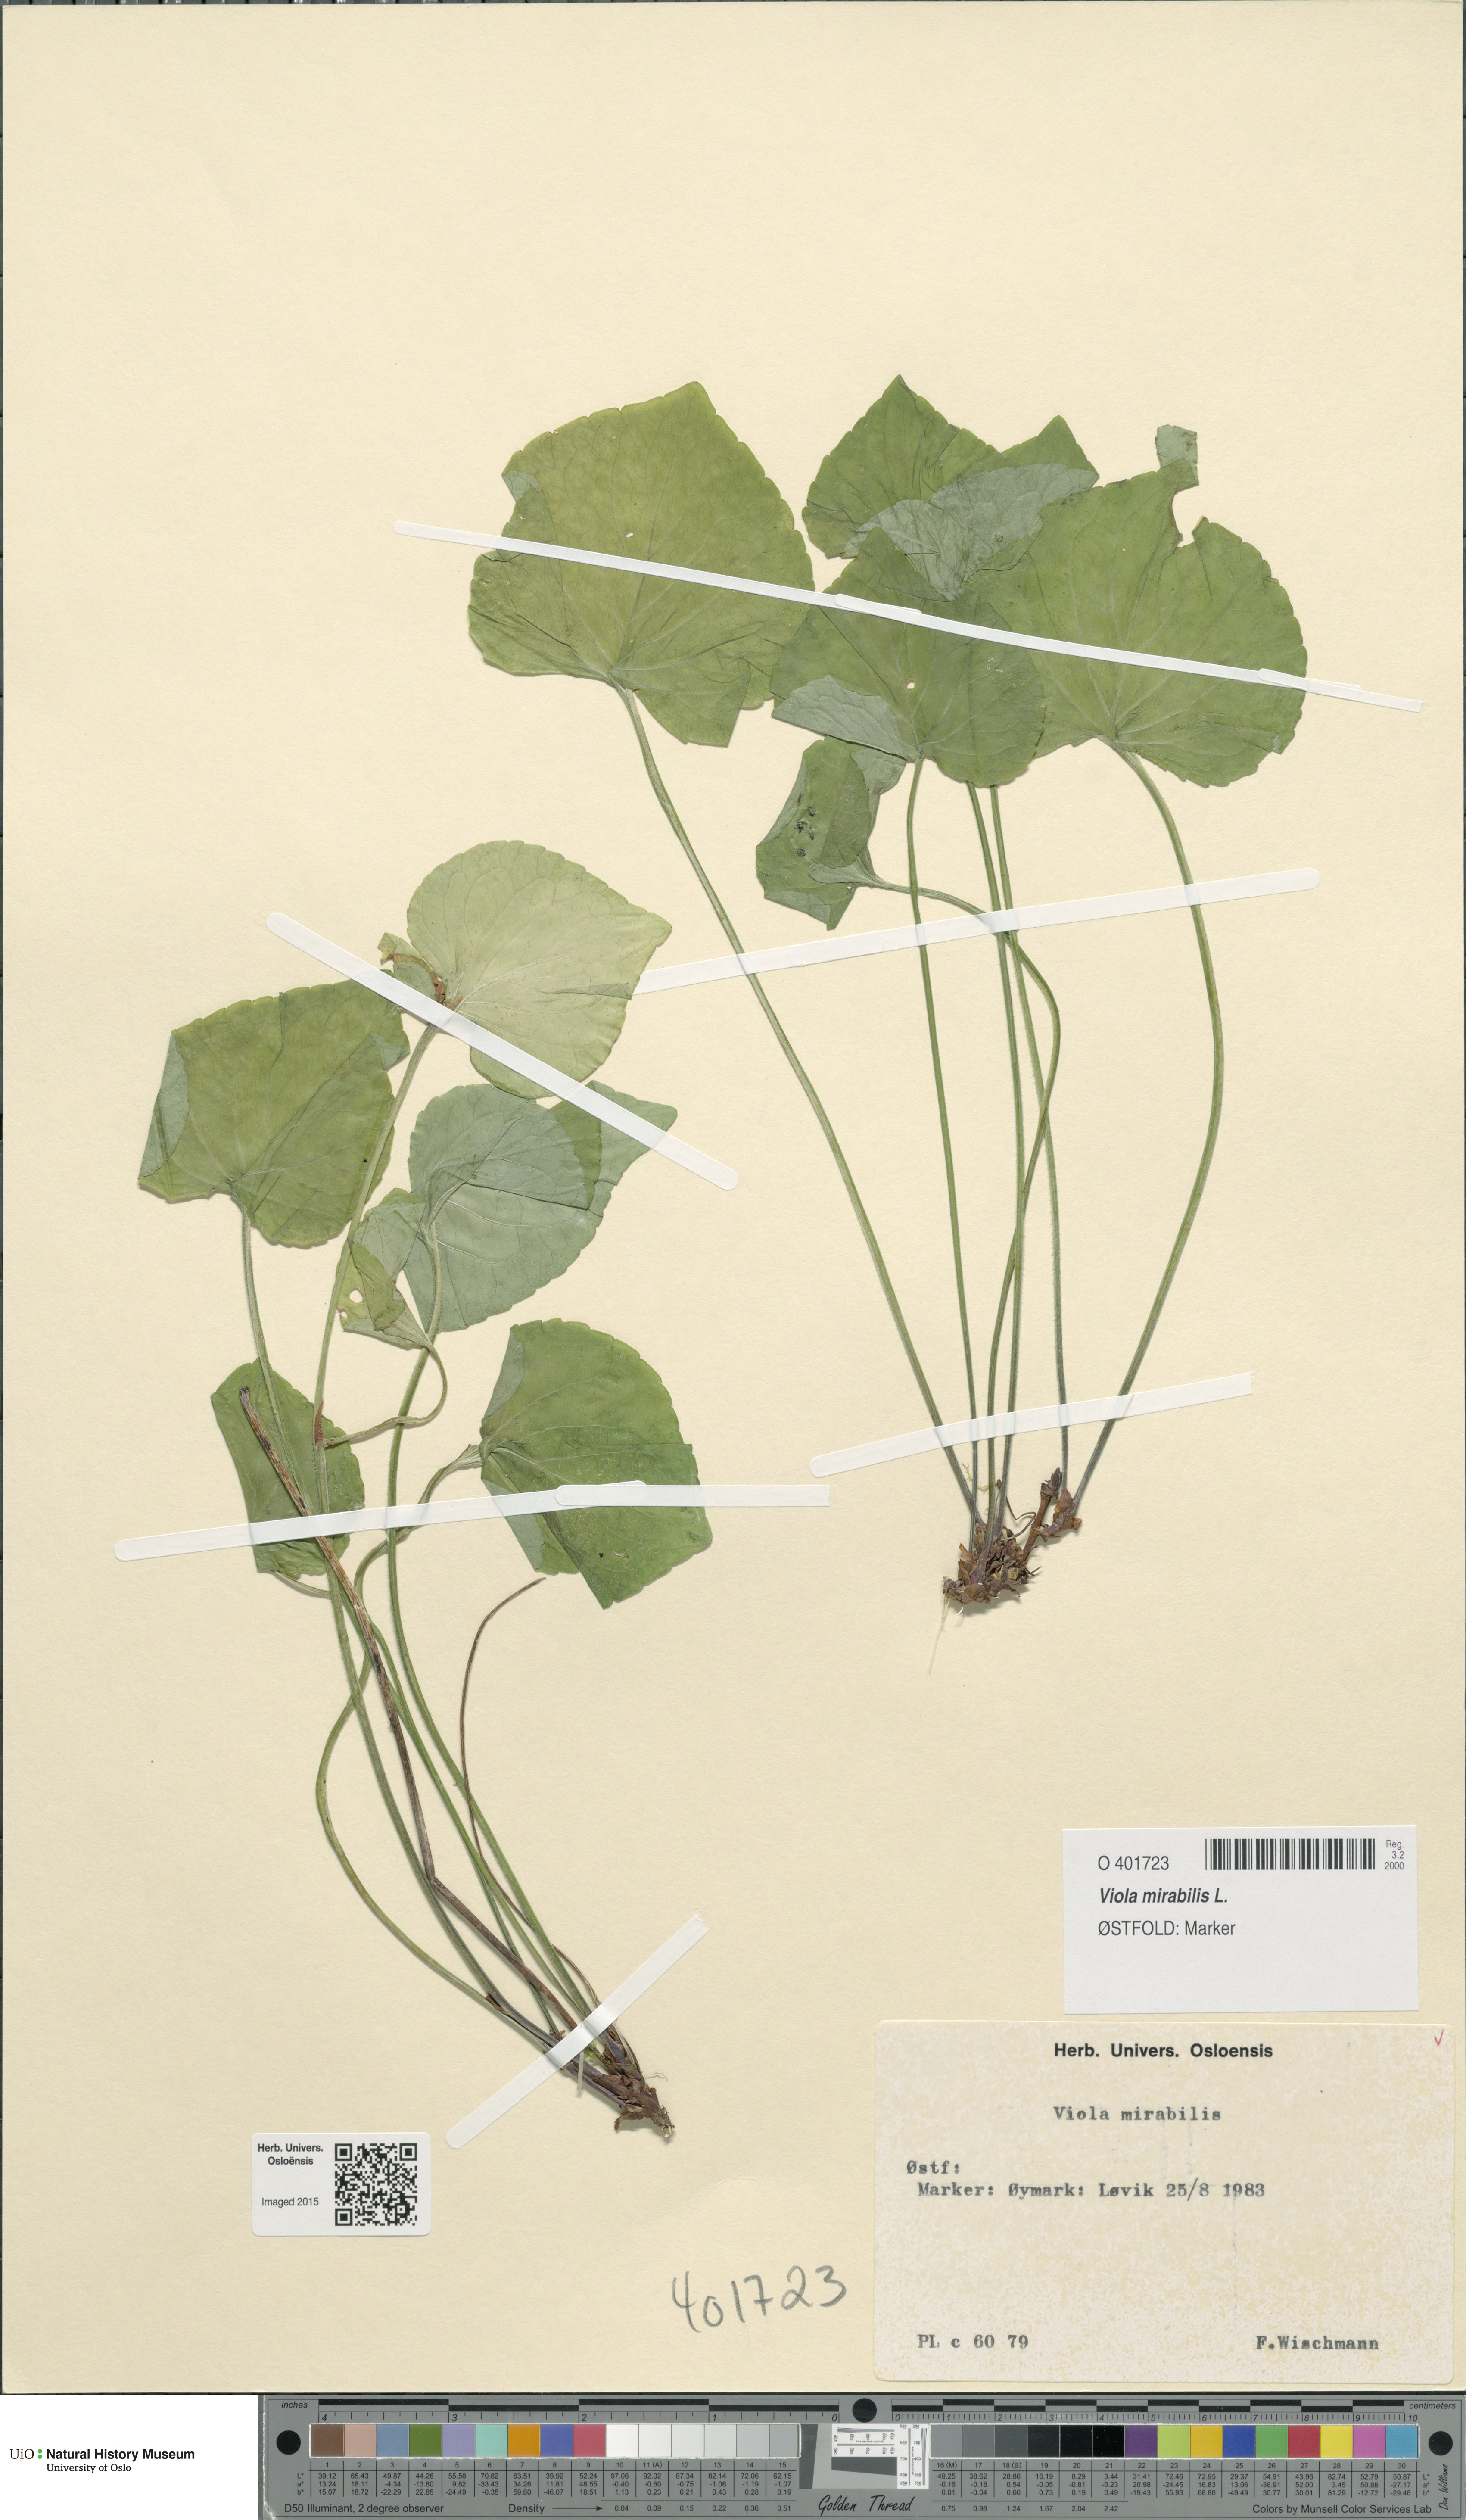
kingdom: Plantae
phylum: Tracheophyta
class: Magnoliopsida
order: Malpighiales
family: Violaceae
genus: Viola
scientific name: Viola mirabilis
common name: Wonder violet
